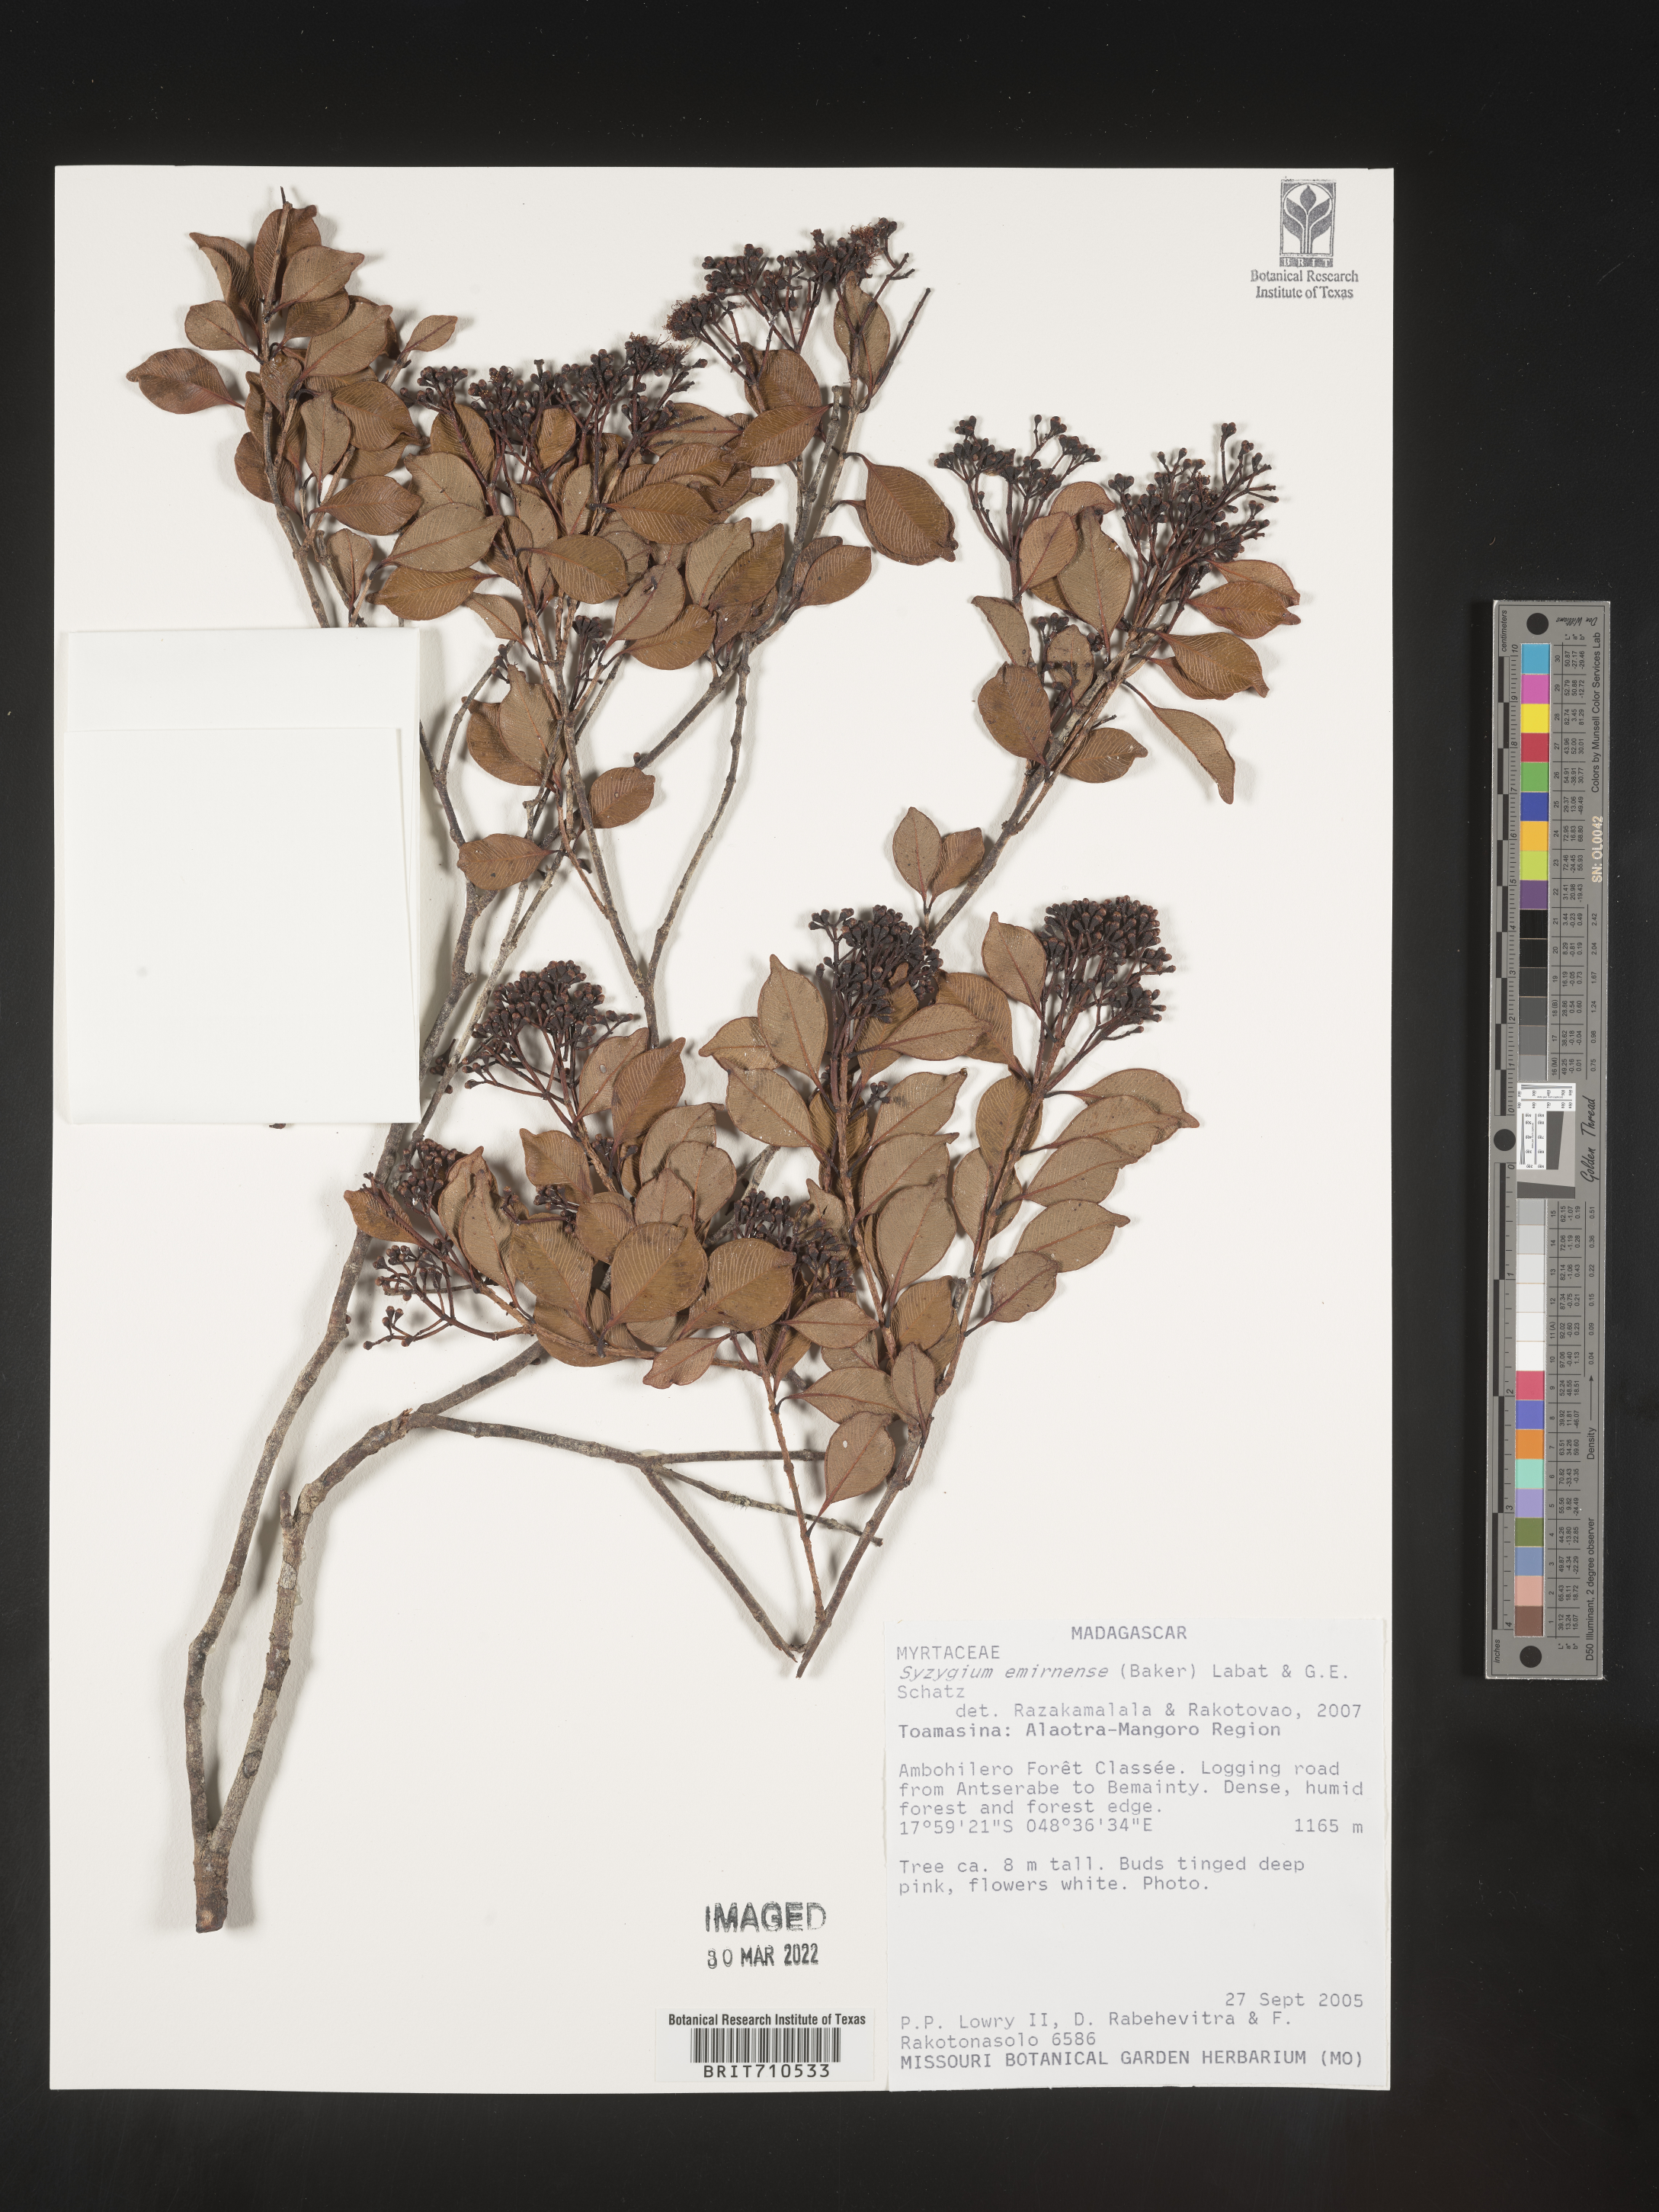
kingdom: Plantae
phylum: Tracheophyta
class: Magnoliopsida
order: Myrtales
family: Myrtaceae
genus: Syzygium
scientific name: Syzygium
